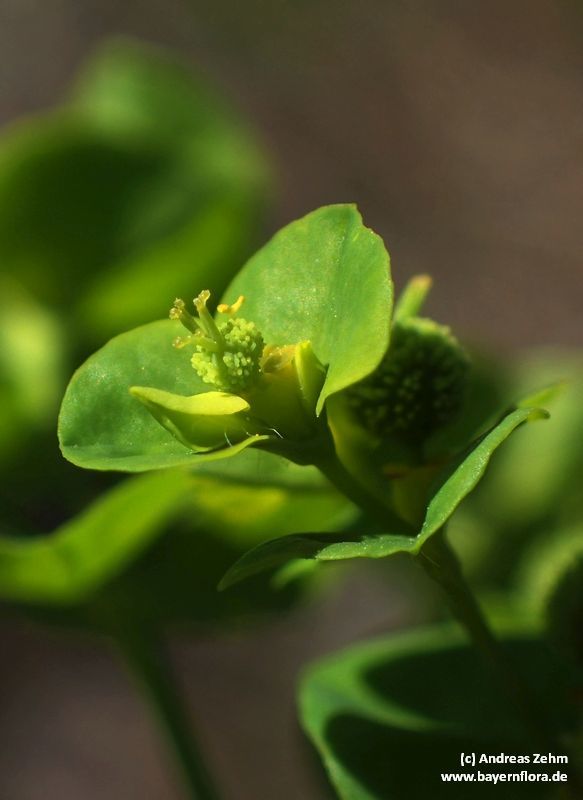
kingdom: Plantae
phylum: Tracheophyta
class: Magnoliopsida
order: Malpighiales
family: Euphorbiaceae
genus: Euphorbia
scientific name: Euphorbia stricta
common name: Upright spurge
